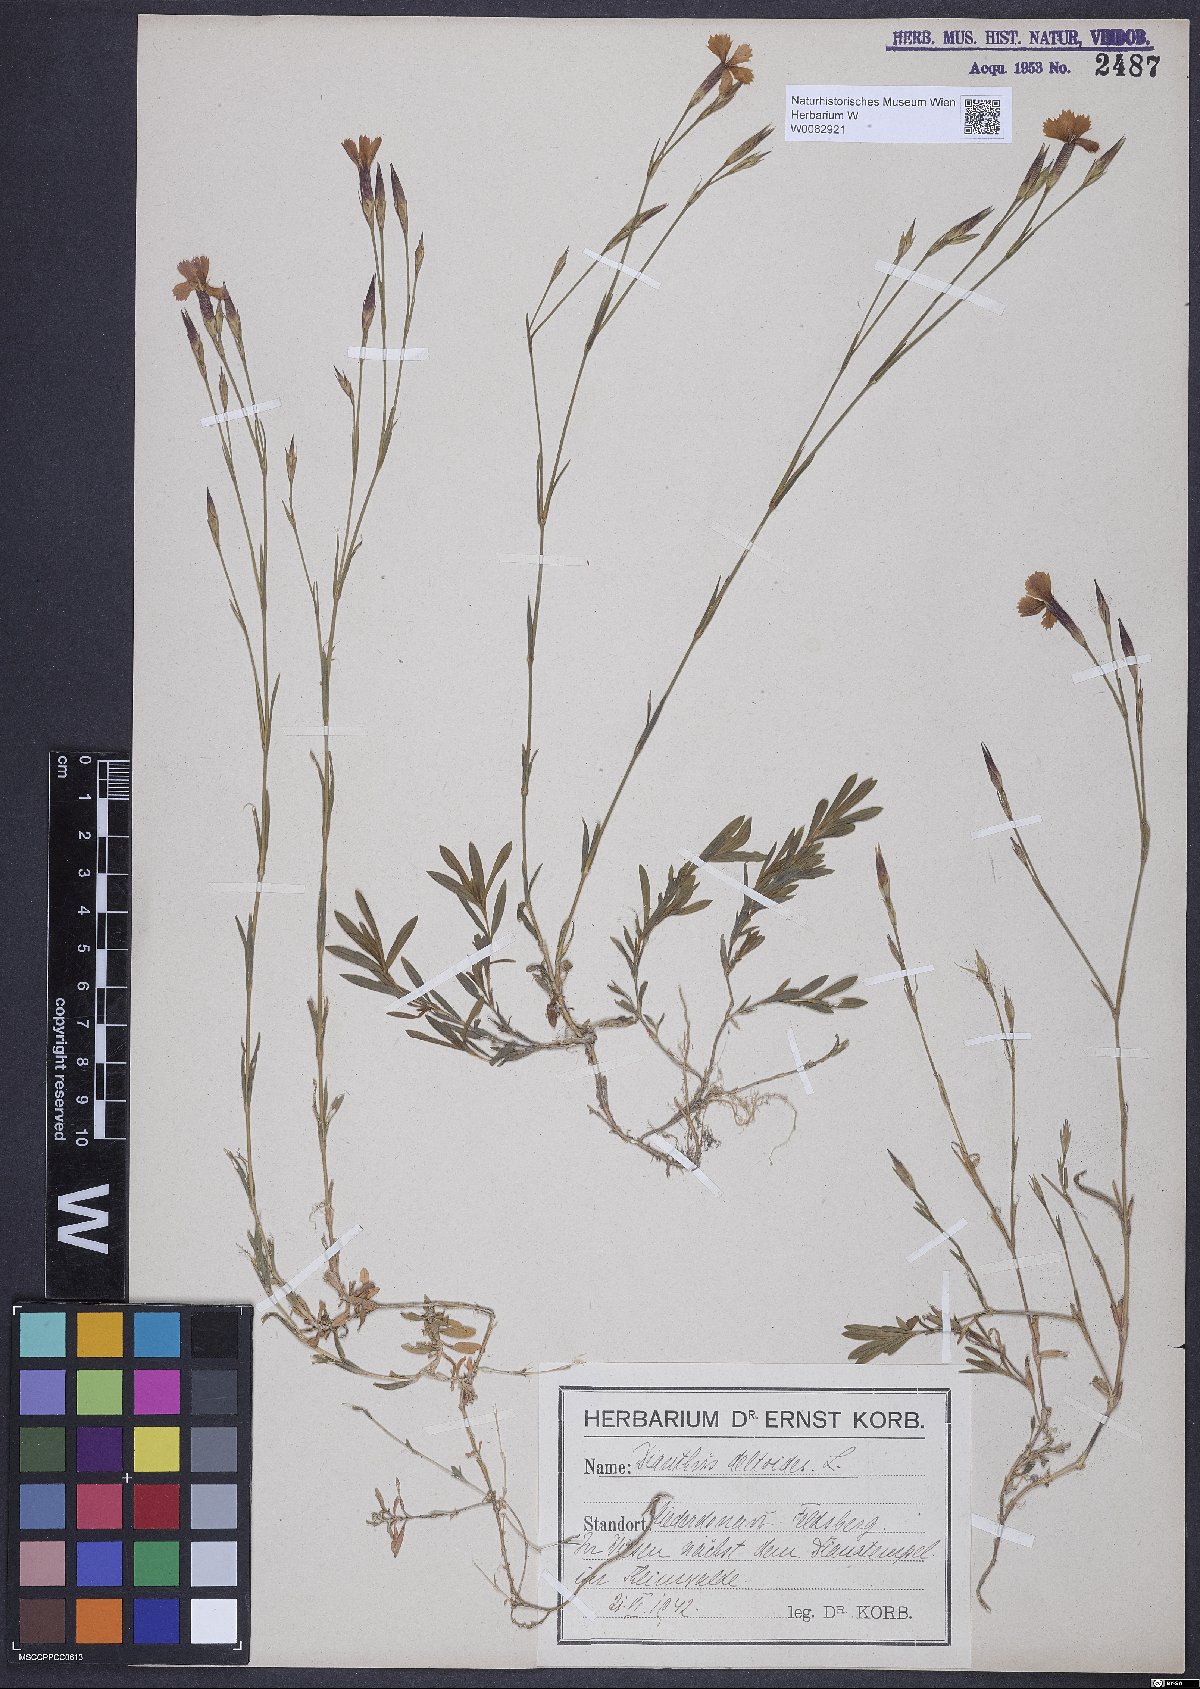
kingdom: Plantae
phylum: Tracheophyta
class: Magnoliopsida
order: Caryophyllales
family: Caryophyllaceae
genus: Dianthus
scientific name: Dianthus deltoides
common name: Maiden pink
